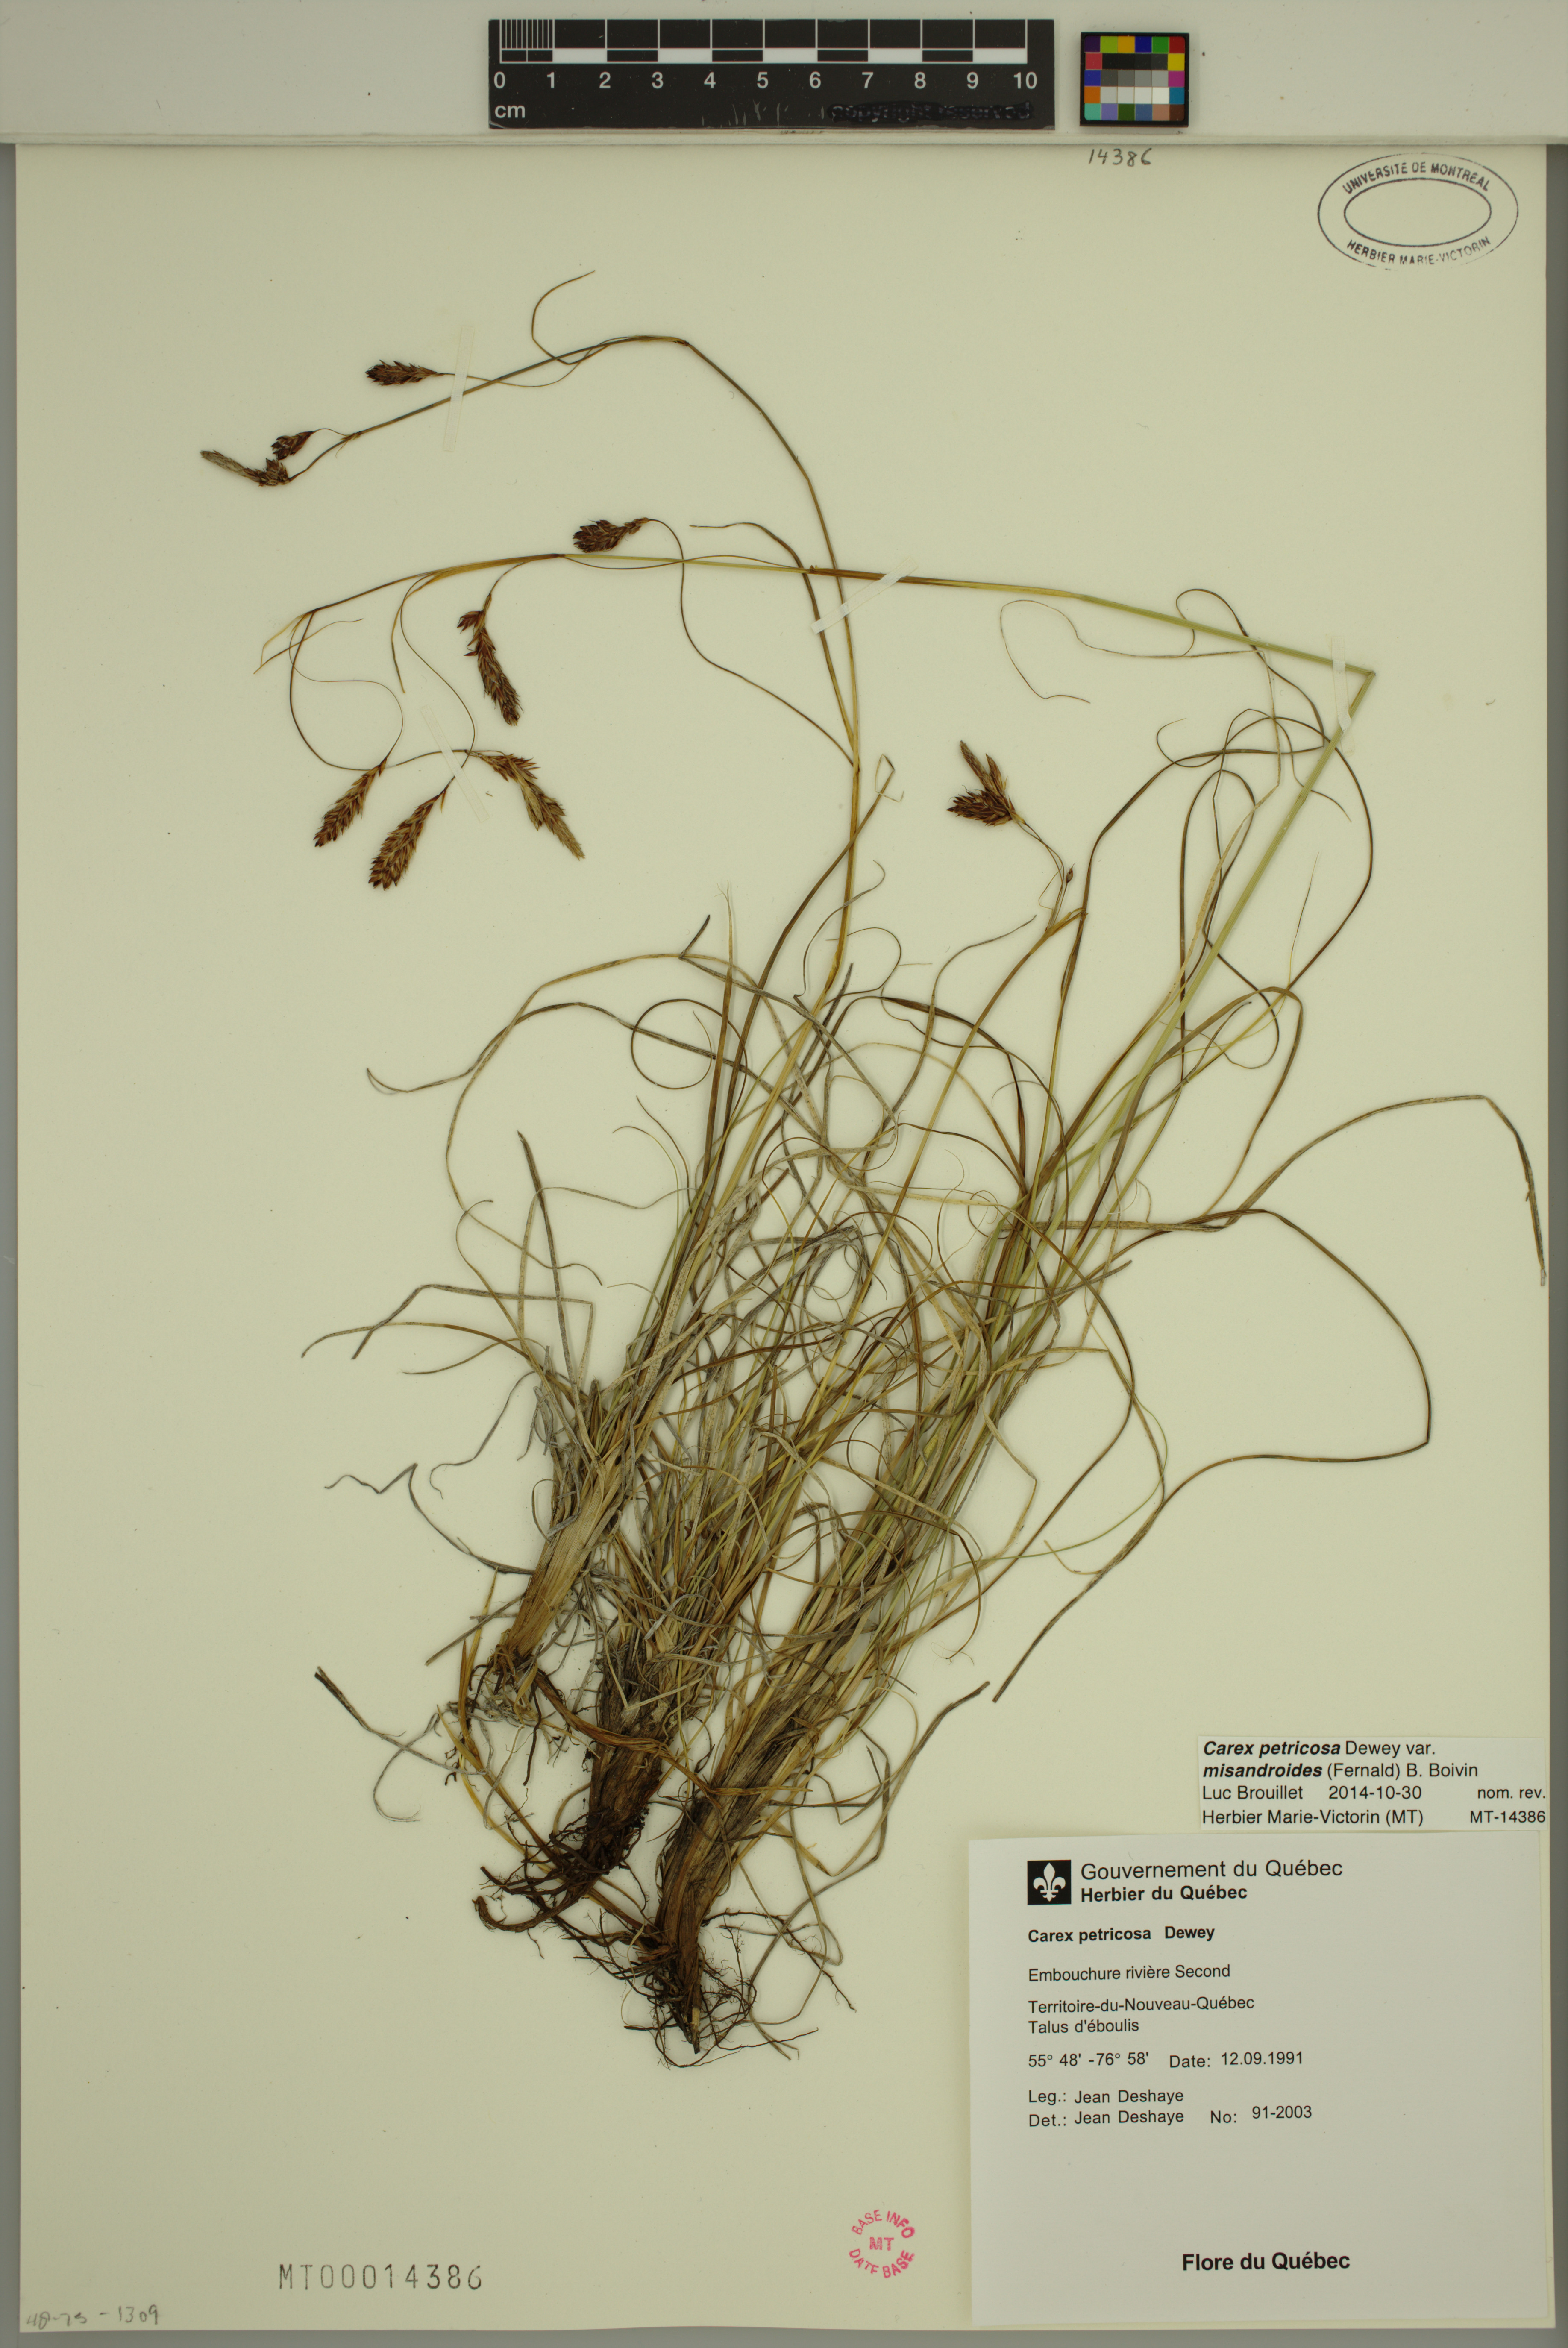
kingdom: Plantae
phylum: Tracheophyta
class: Liliopsida
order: Poales
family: Cyperaceae
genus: Carex
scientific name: Carex petricosa
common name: Rock sedge
